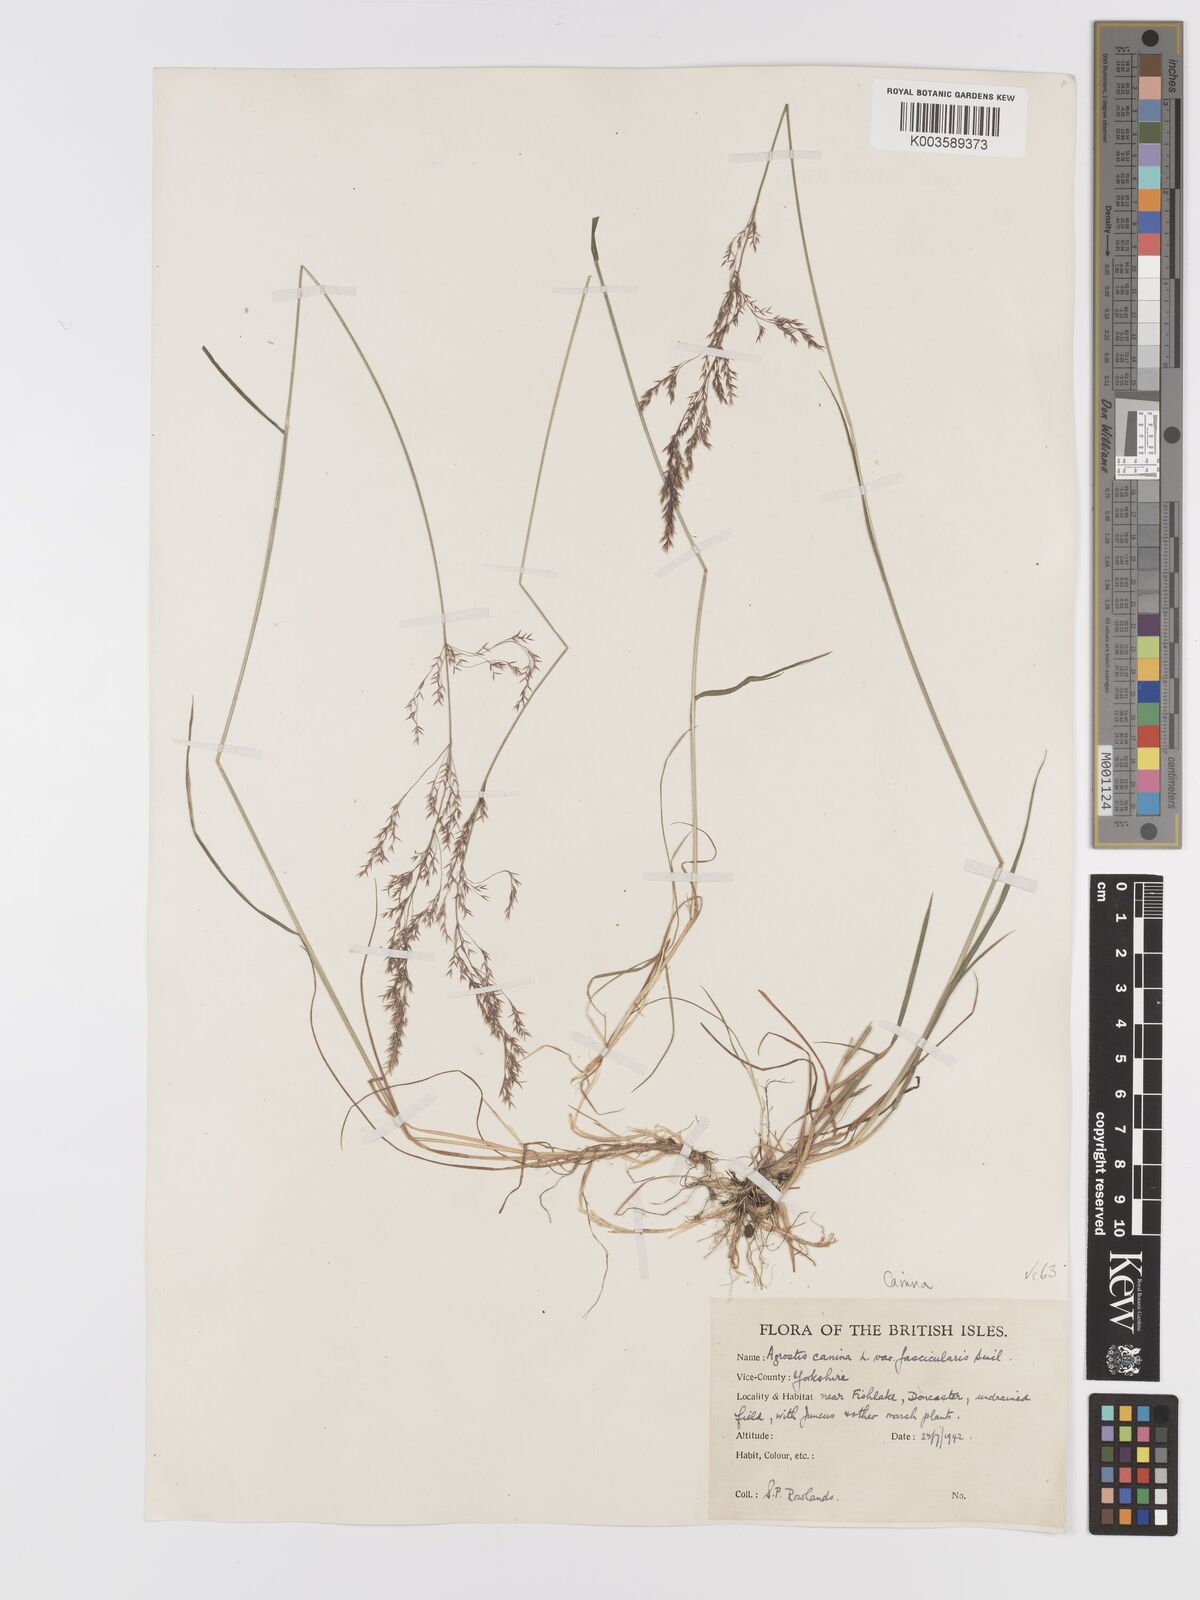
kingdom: Plantae
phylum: Tracheophyta
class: Liliopsida
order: Poales
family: Poaceae
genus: Agrostis
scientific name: Agrostis canina
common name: Velvet bent
